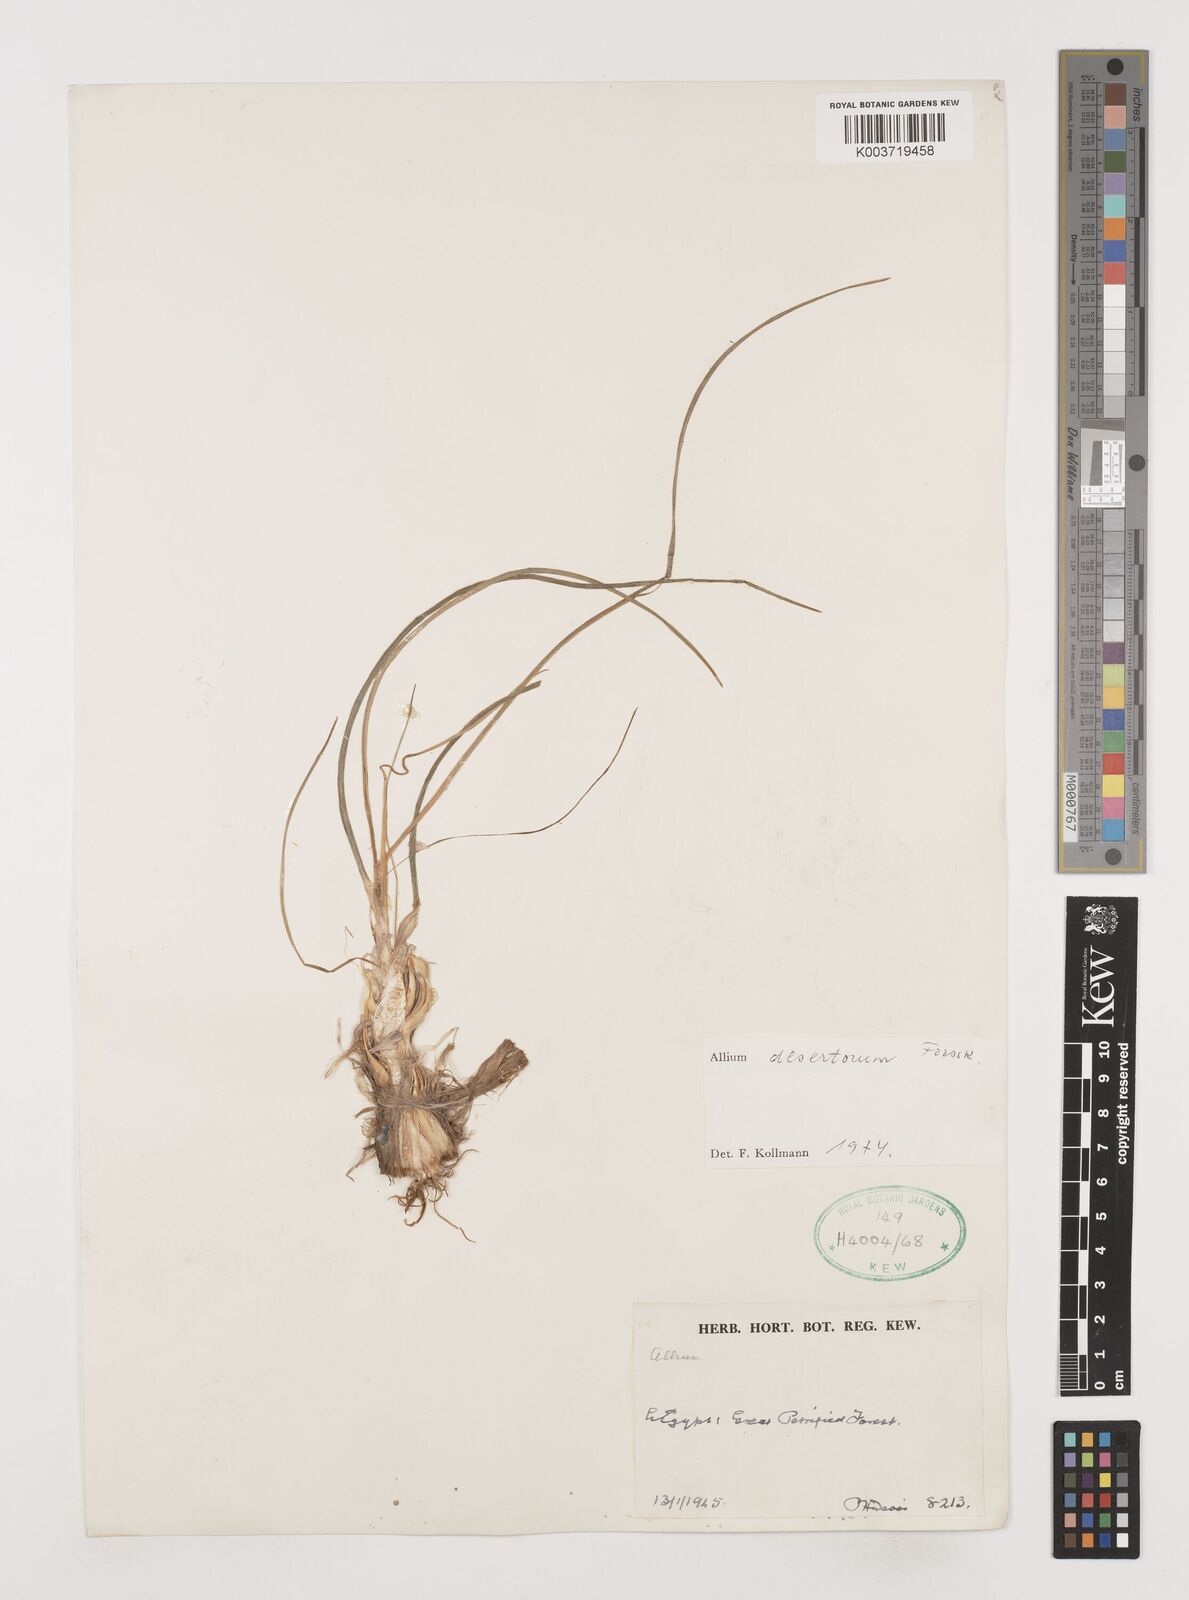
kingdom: Plantae
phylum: Tracheophyta
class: Liliopsida
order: Asparagales
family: Amaryllidaceae
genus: Allium
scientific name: Allium desertorum
